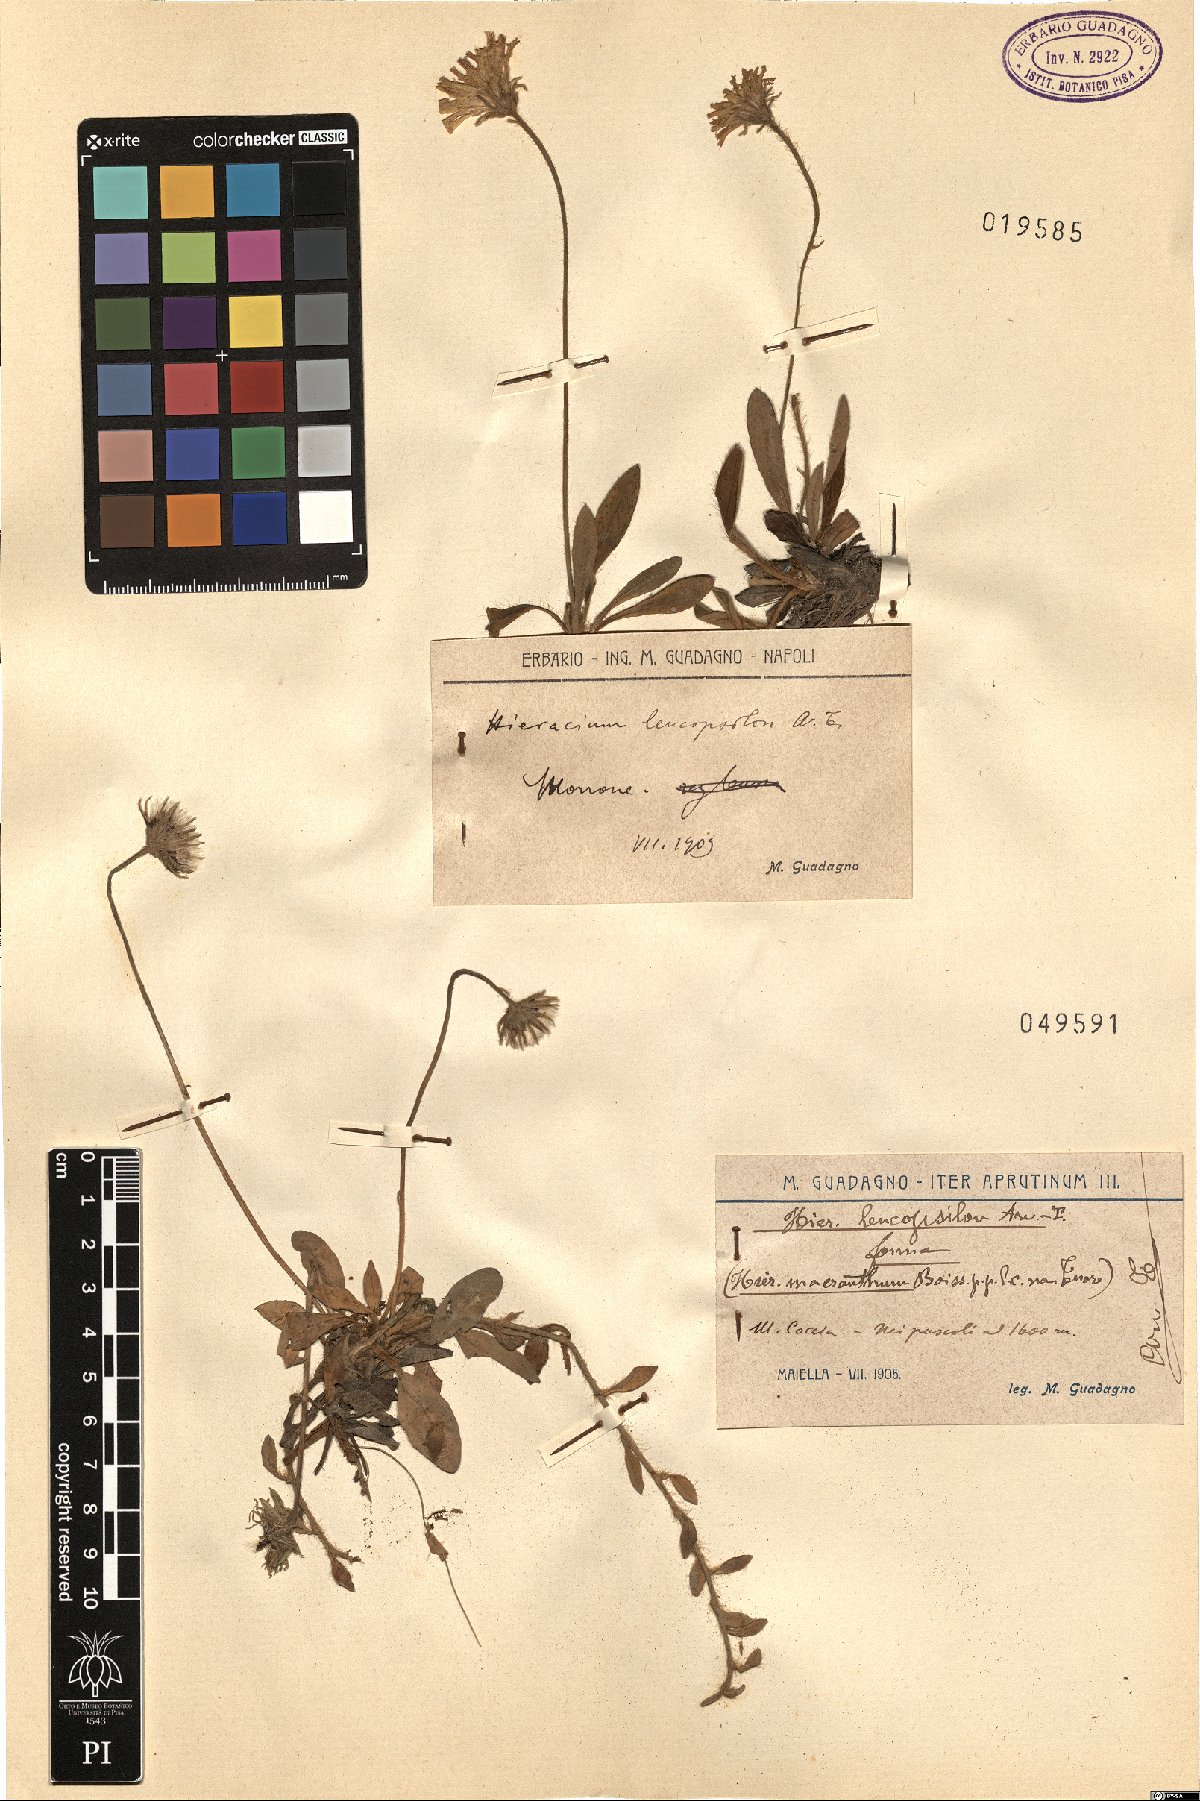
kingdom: Plantae
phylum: Tracheophyta
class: Magnoliopsida
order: Asterales
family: Asteraceae
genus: Pilosella
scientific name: Pilosella leucopsilon
